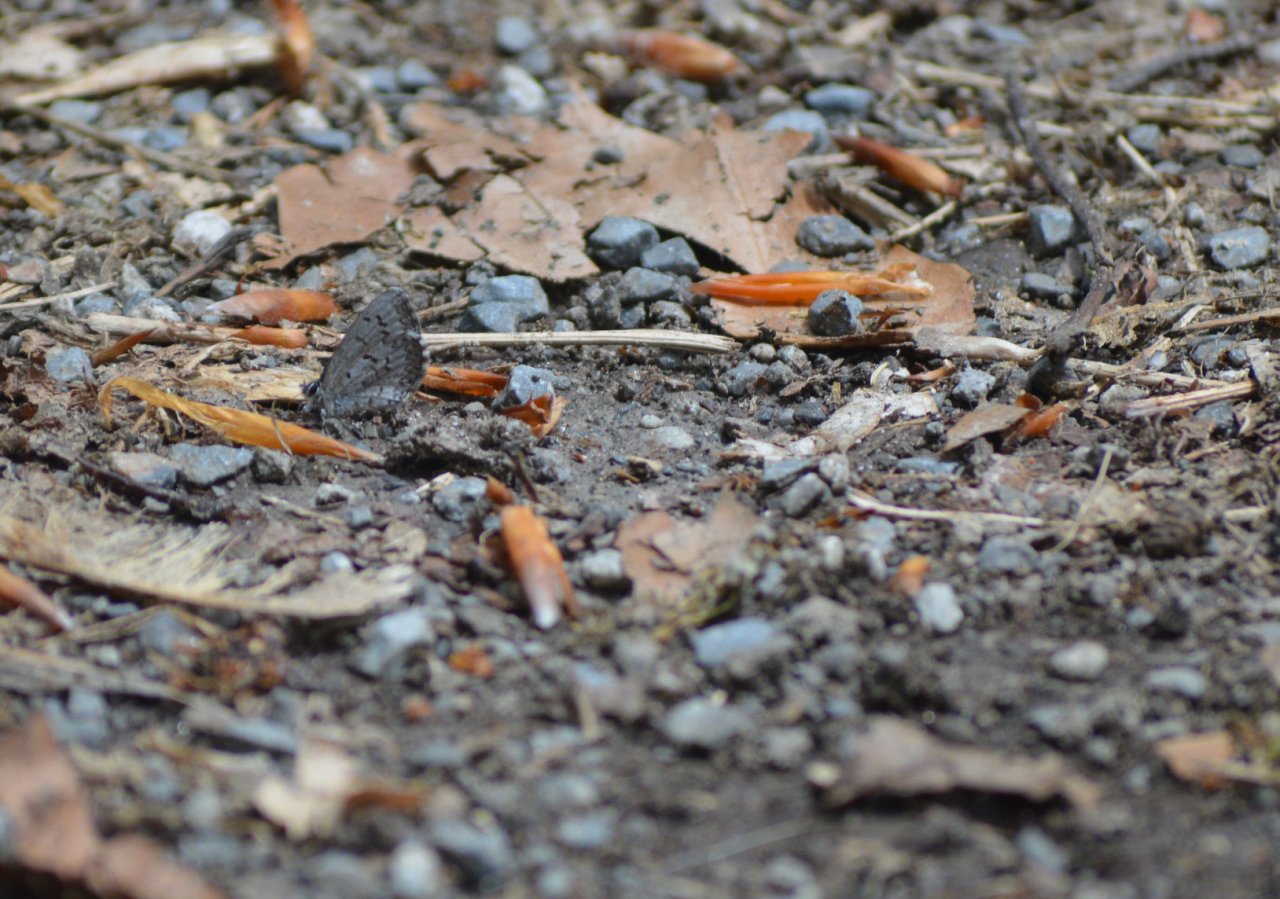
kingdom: Animalia
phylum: Arthropoda
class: Insecta
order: Lepidoptera
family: Lycaenidae
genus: Celastrina
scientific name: Celastrina lucia
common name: Northern Spring Azure
